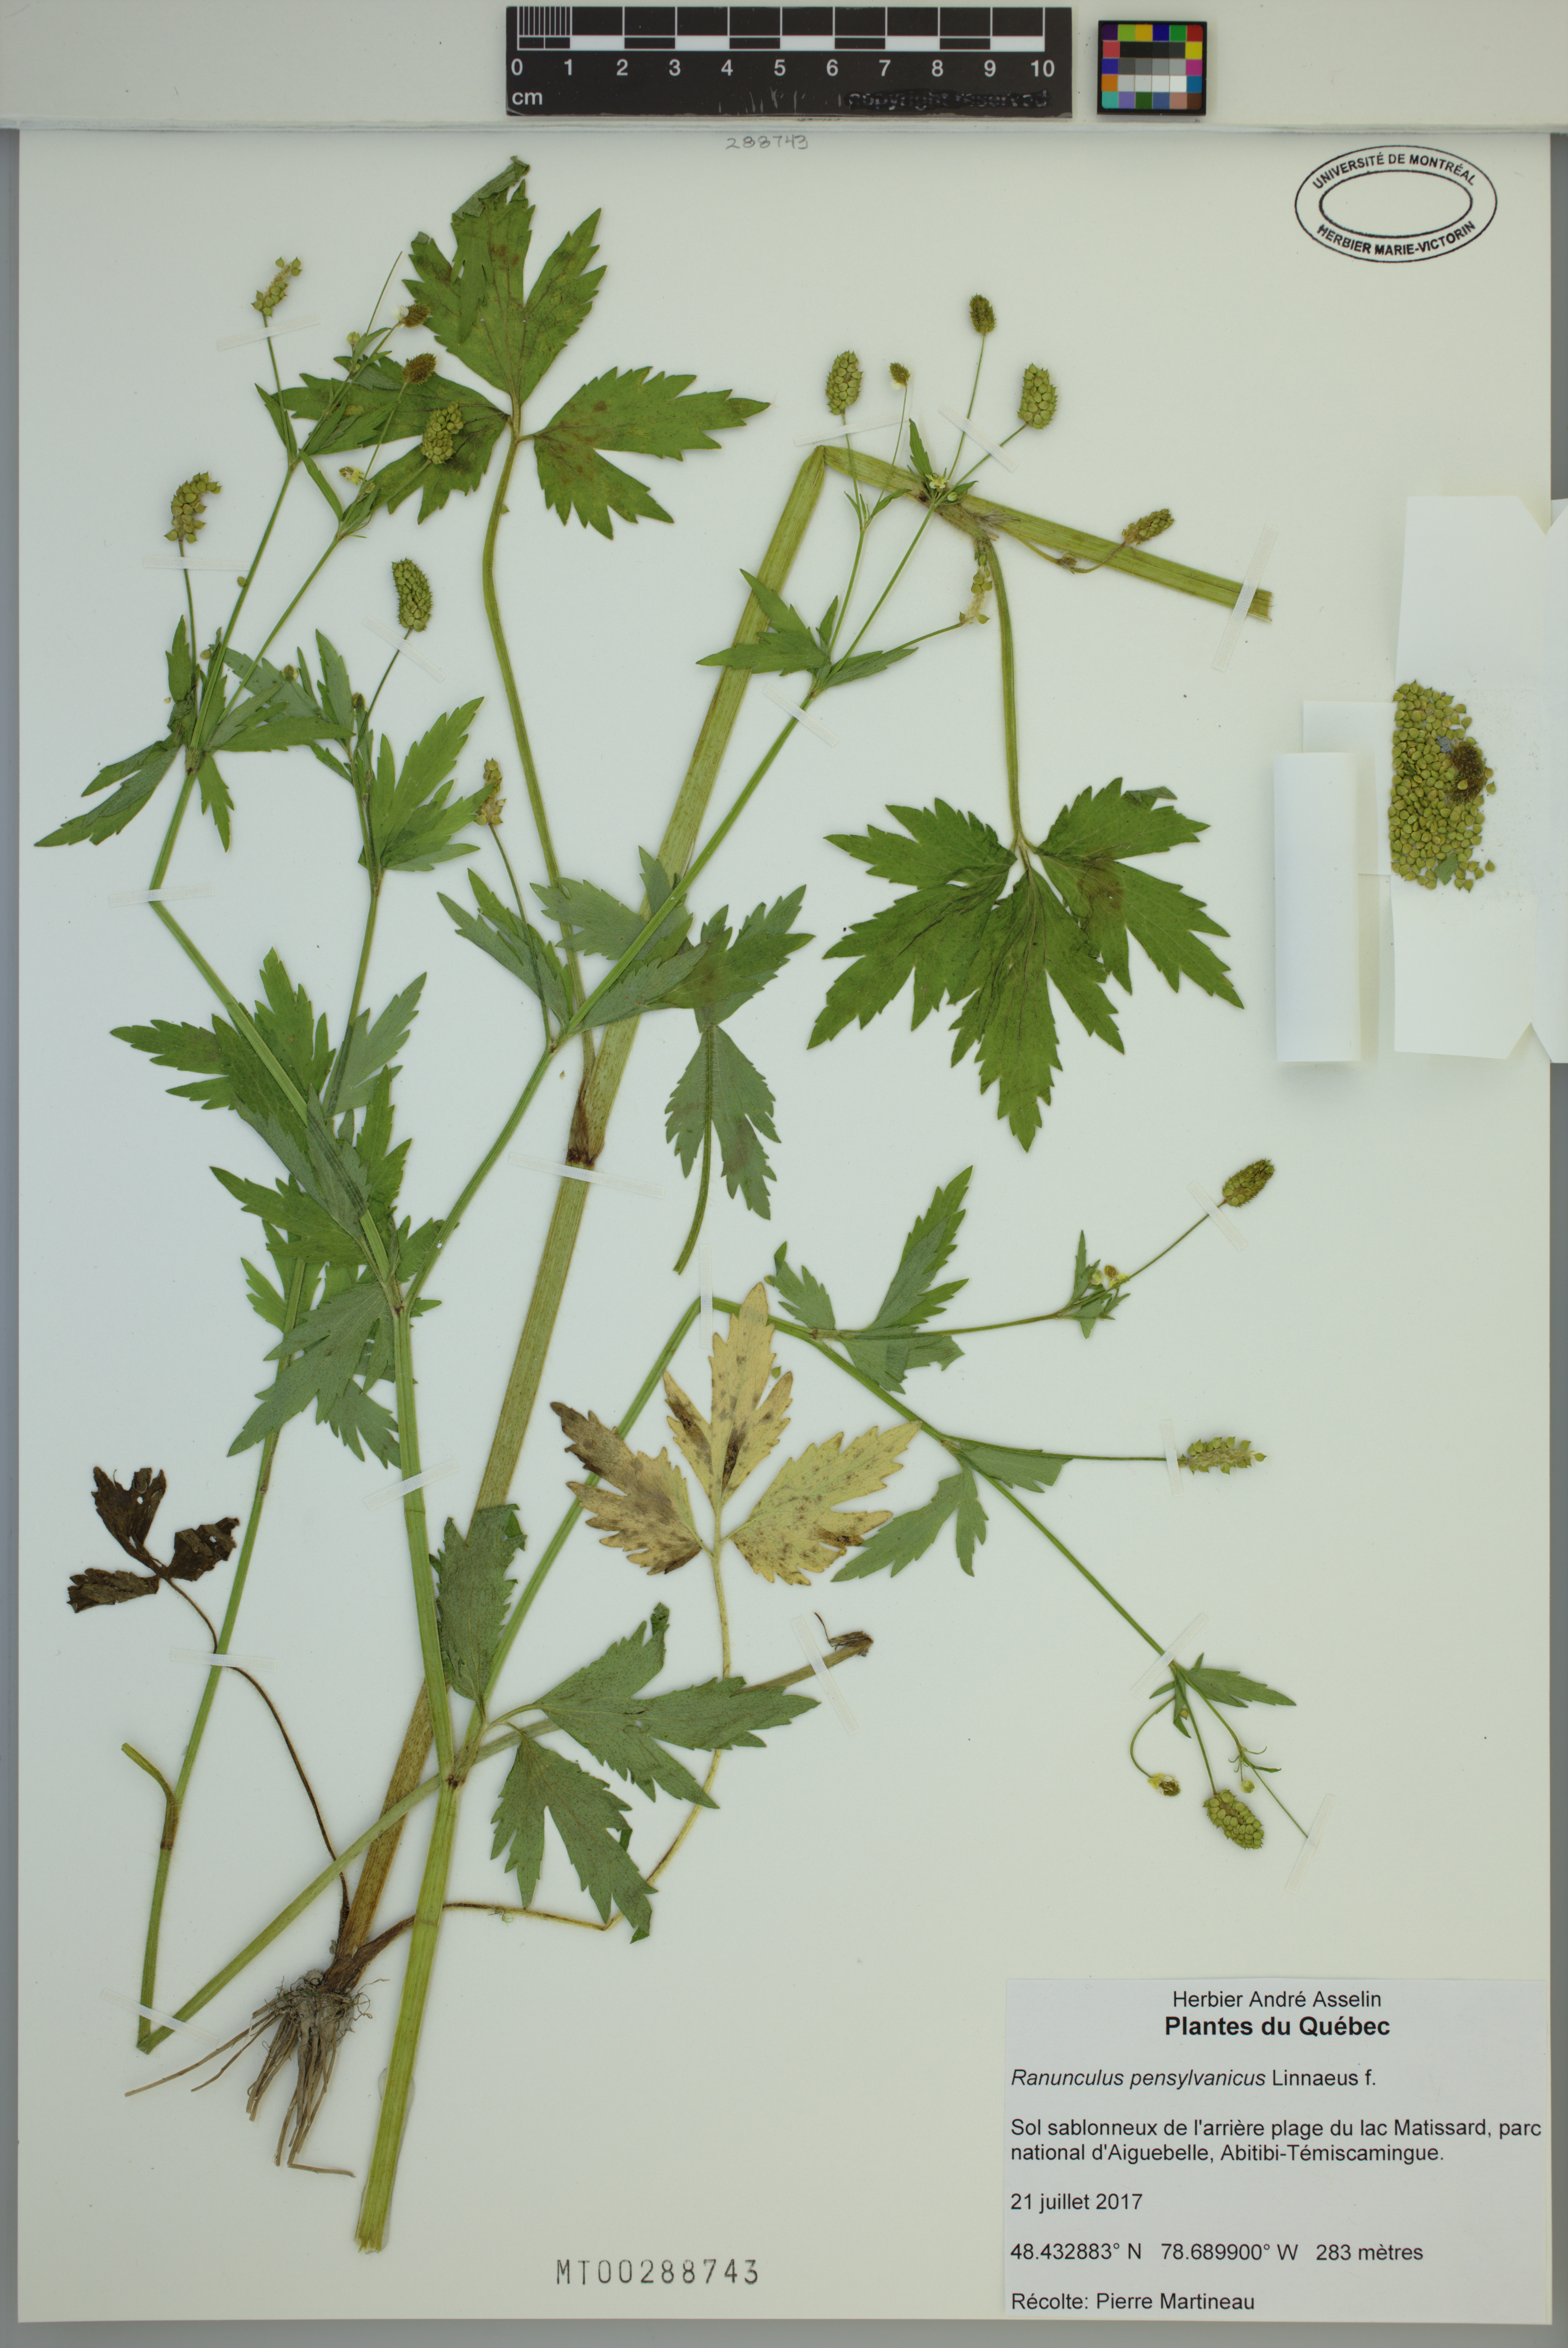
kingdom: Plantae
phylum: Tracheophyta
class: Magnoliopsida
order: Ranunculales
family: Ranunculaceae
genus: Ranunculus
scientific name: Ranunculus pensylvanicus
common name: Bristly buttercup
